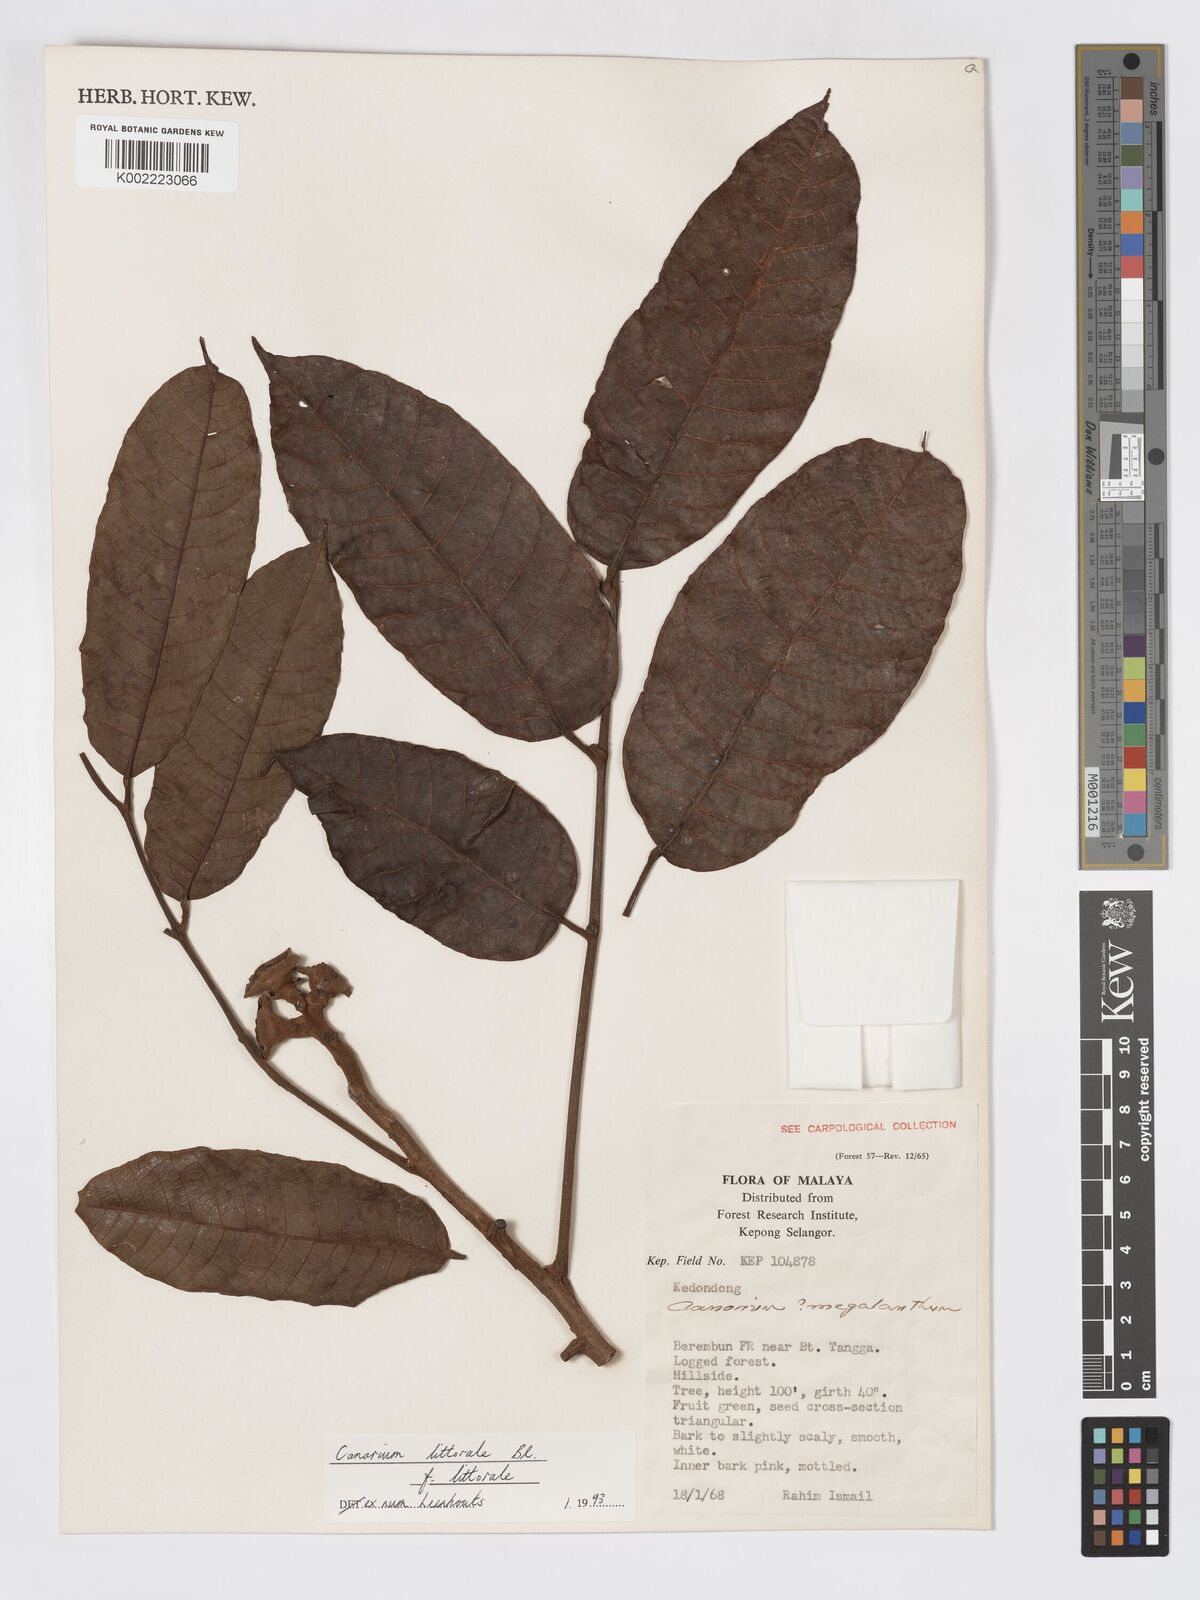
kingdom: Plantae
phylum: Tracheophyta
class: Magnoliopsida
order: Sapindales
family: Burseraceae
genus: Canarium
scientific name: Canarium littorale
